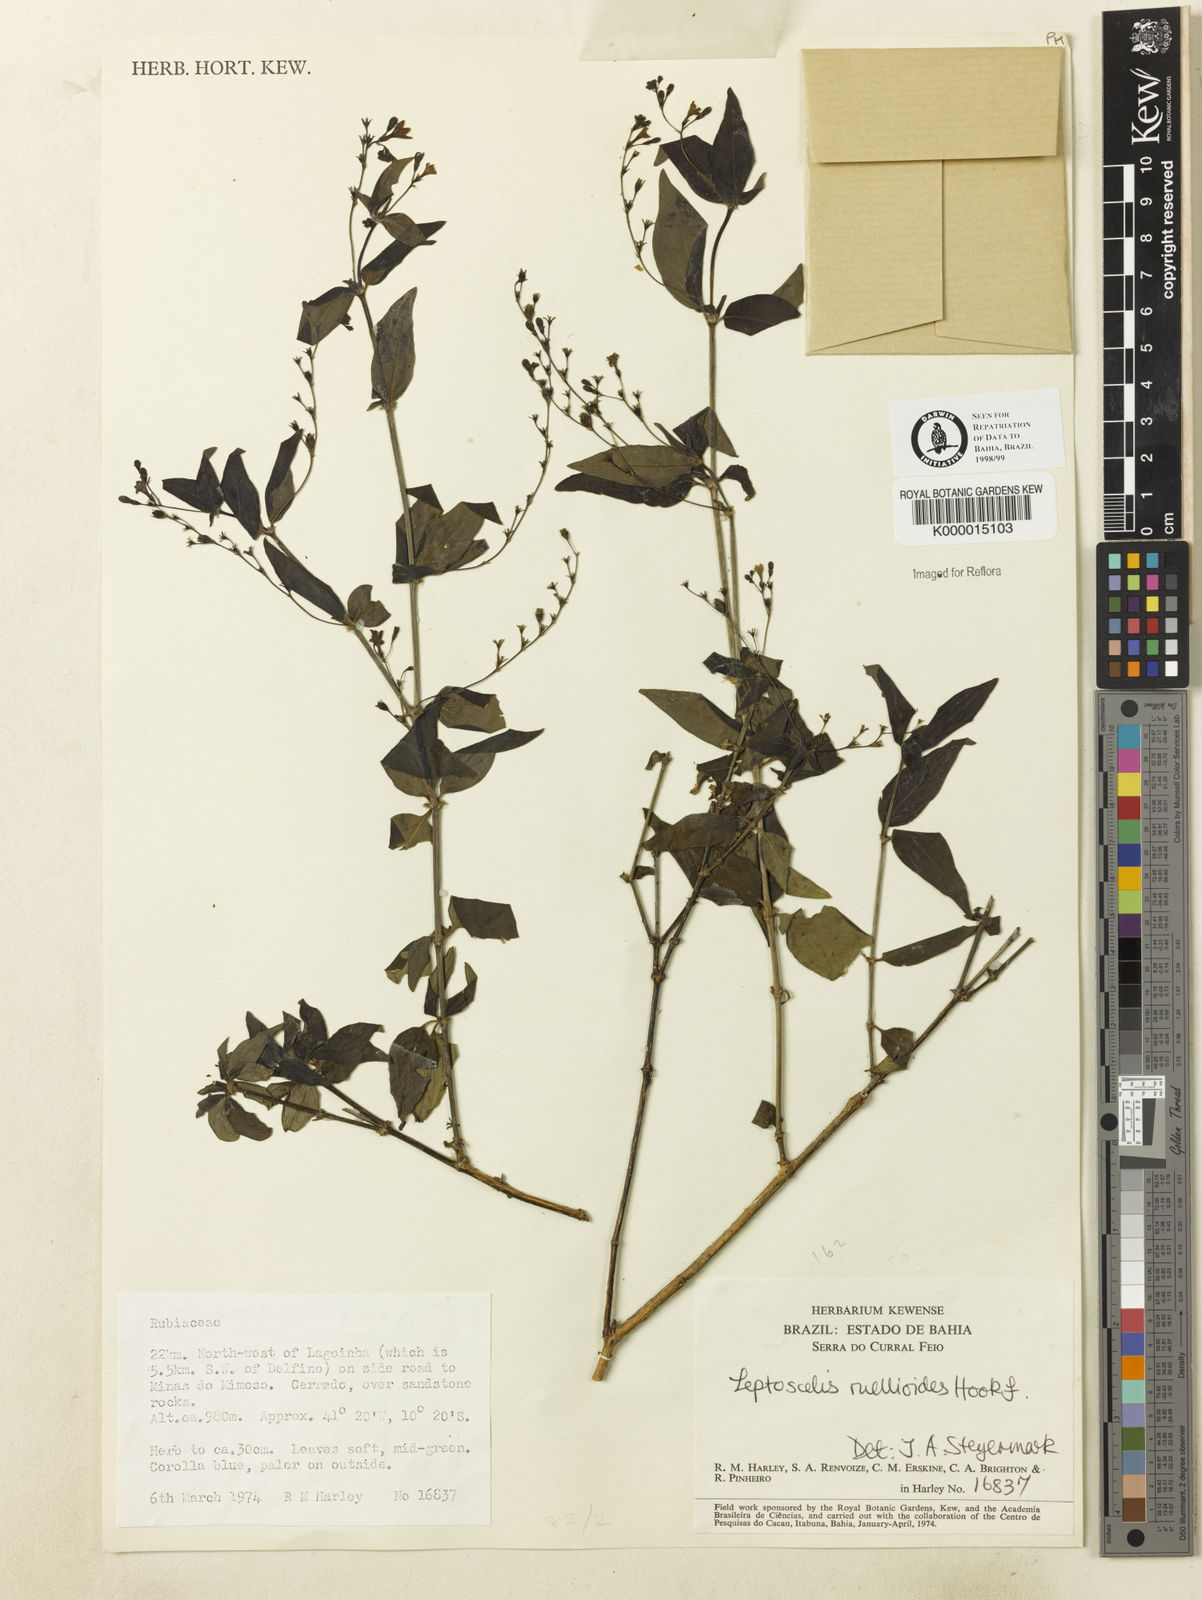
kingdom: Plantae
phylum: Tracheophyta
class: Magnoliopsida
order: Gentianales
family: Rubiaceae
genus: Leptoscela
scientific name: Leptoscela
